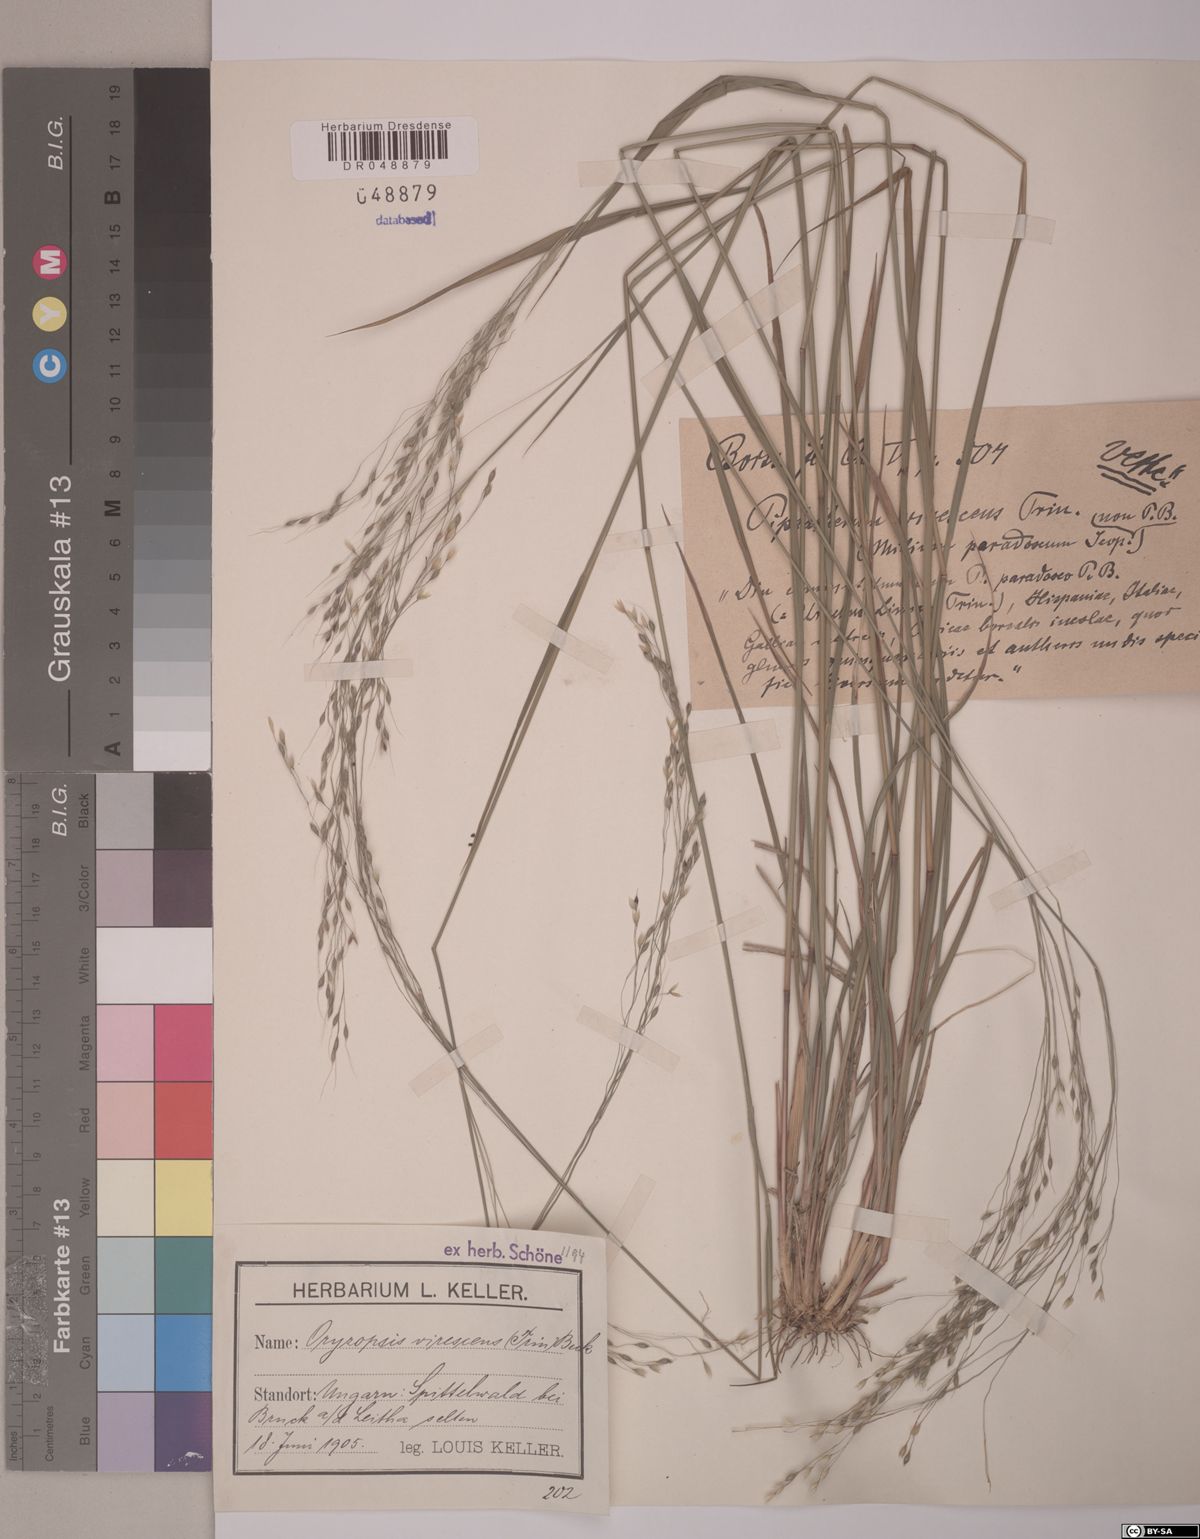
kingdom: Plantae
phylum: Tracheophyta
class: Liliopsida
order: Poales
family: Poaceae
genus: Achnatherum
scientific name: Achnatherum virescens
